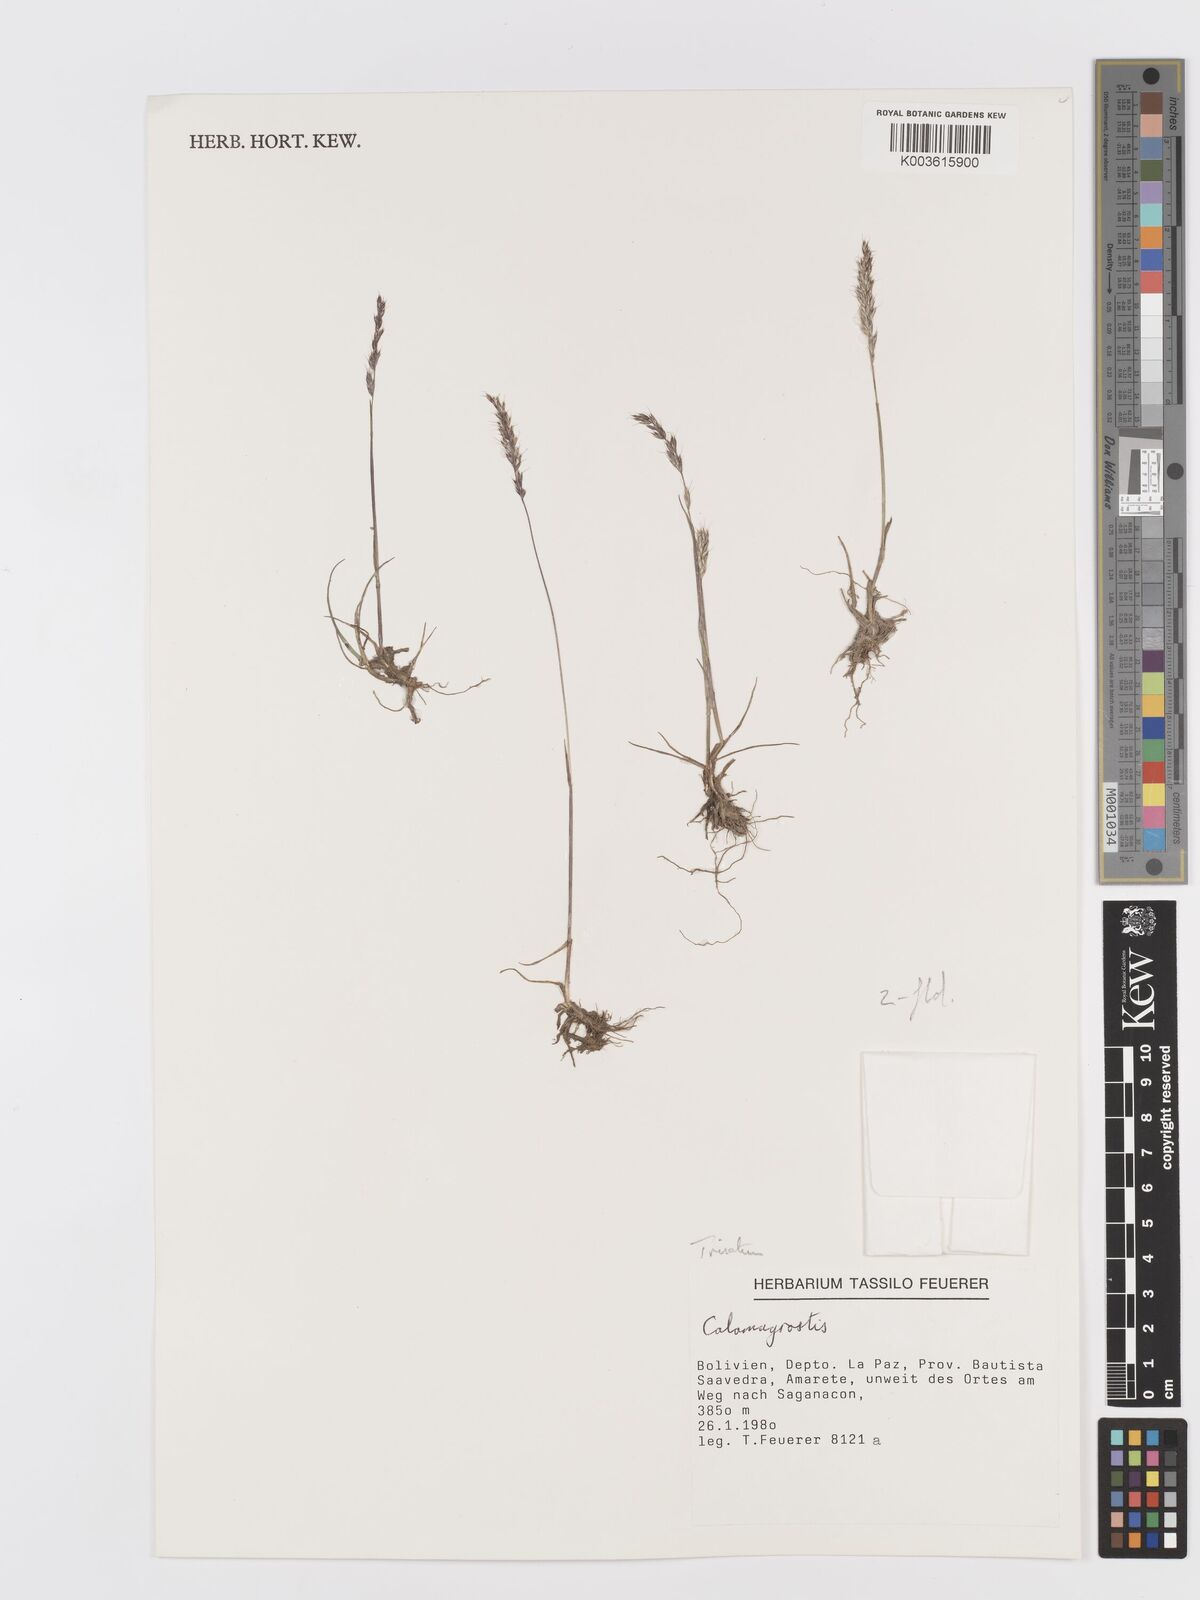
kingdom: Plantae
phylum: Tracheophyta
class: Liliopsida
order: Poales
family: Poaceae
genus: Koeleria
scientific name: Koeleria spicata
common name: Mountain trisetum
